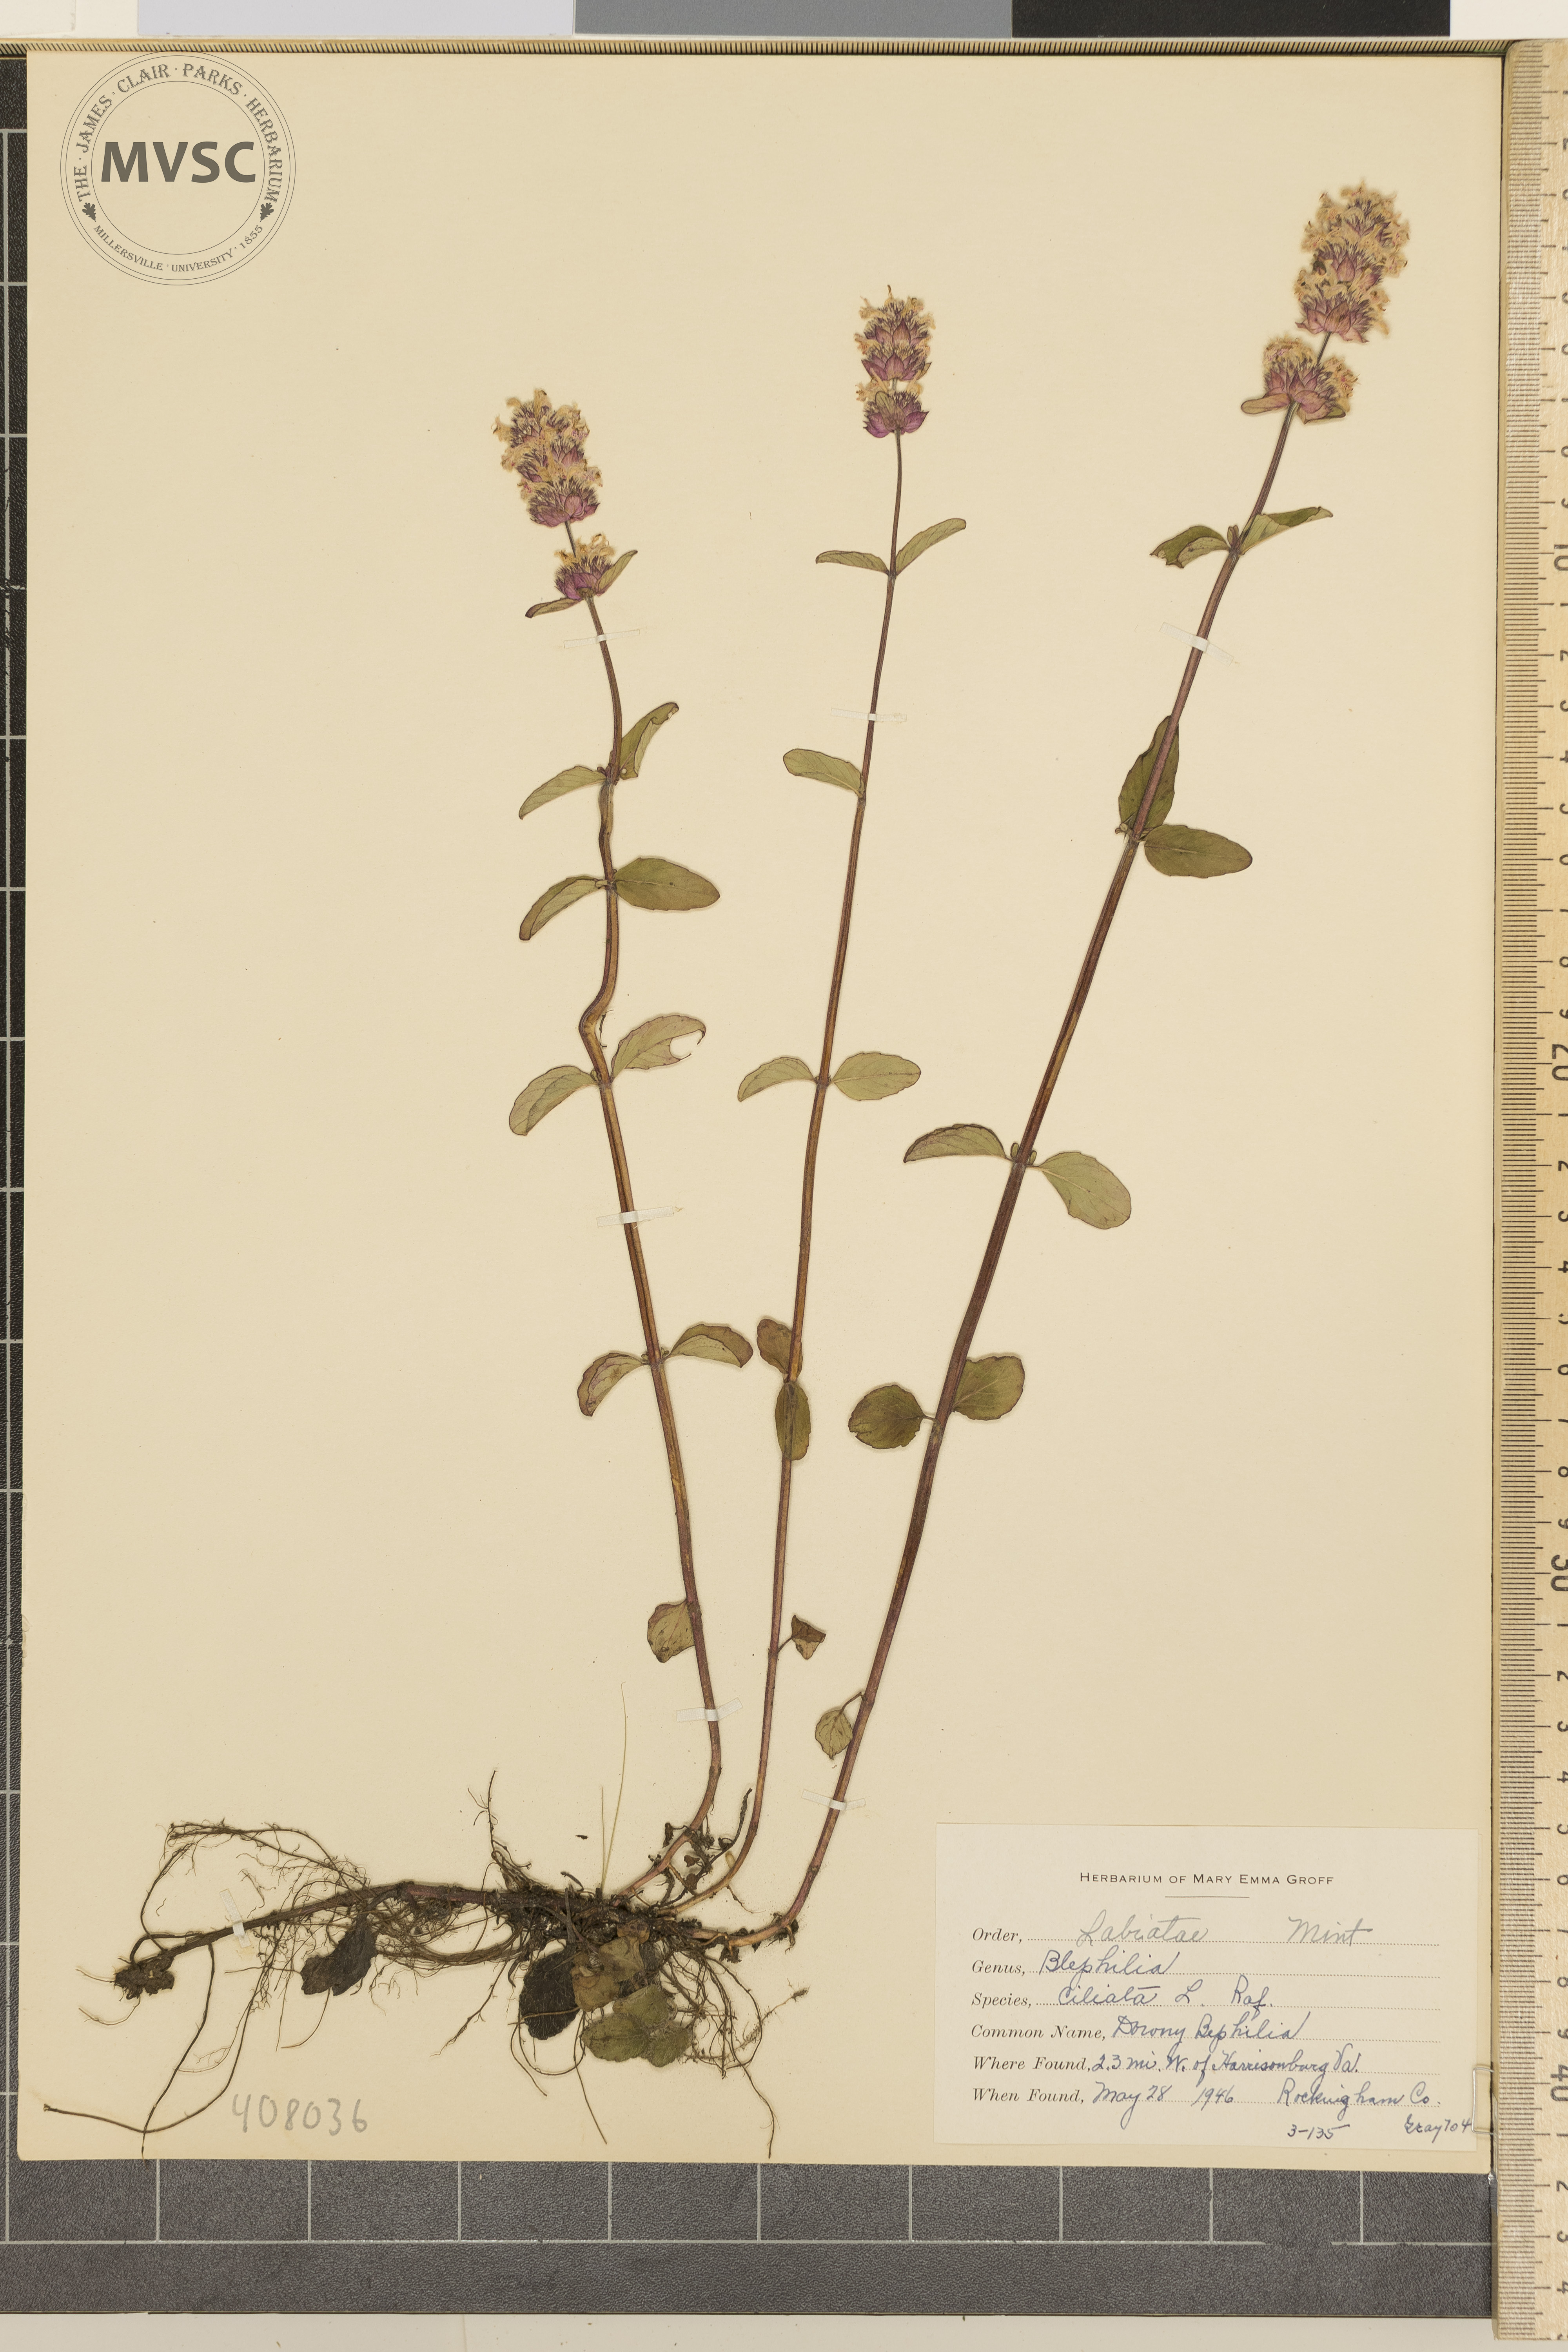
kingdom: Plantae
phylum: Tracheophyta
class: Magnoliopsida
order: Lamiales
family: Lamiaceae
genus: Blephilia
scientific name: Blephilia ciliata
